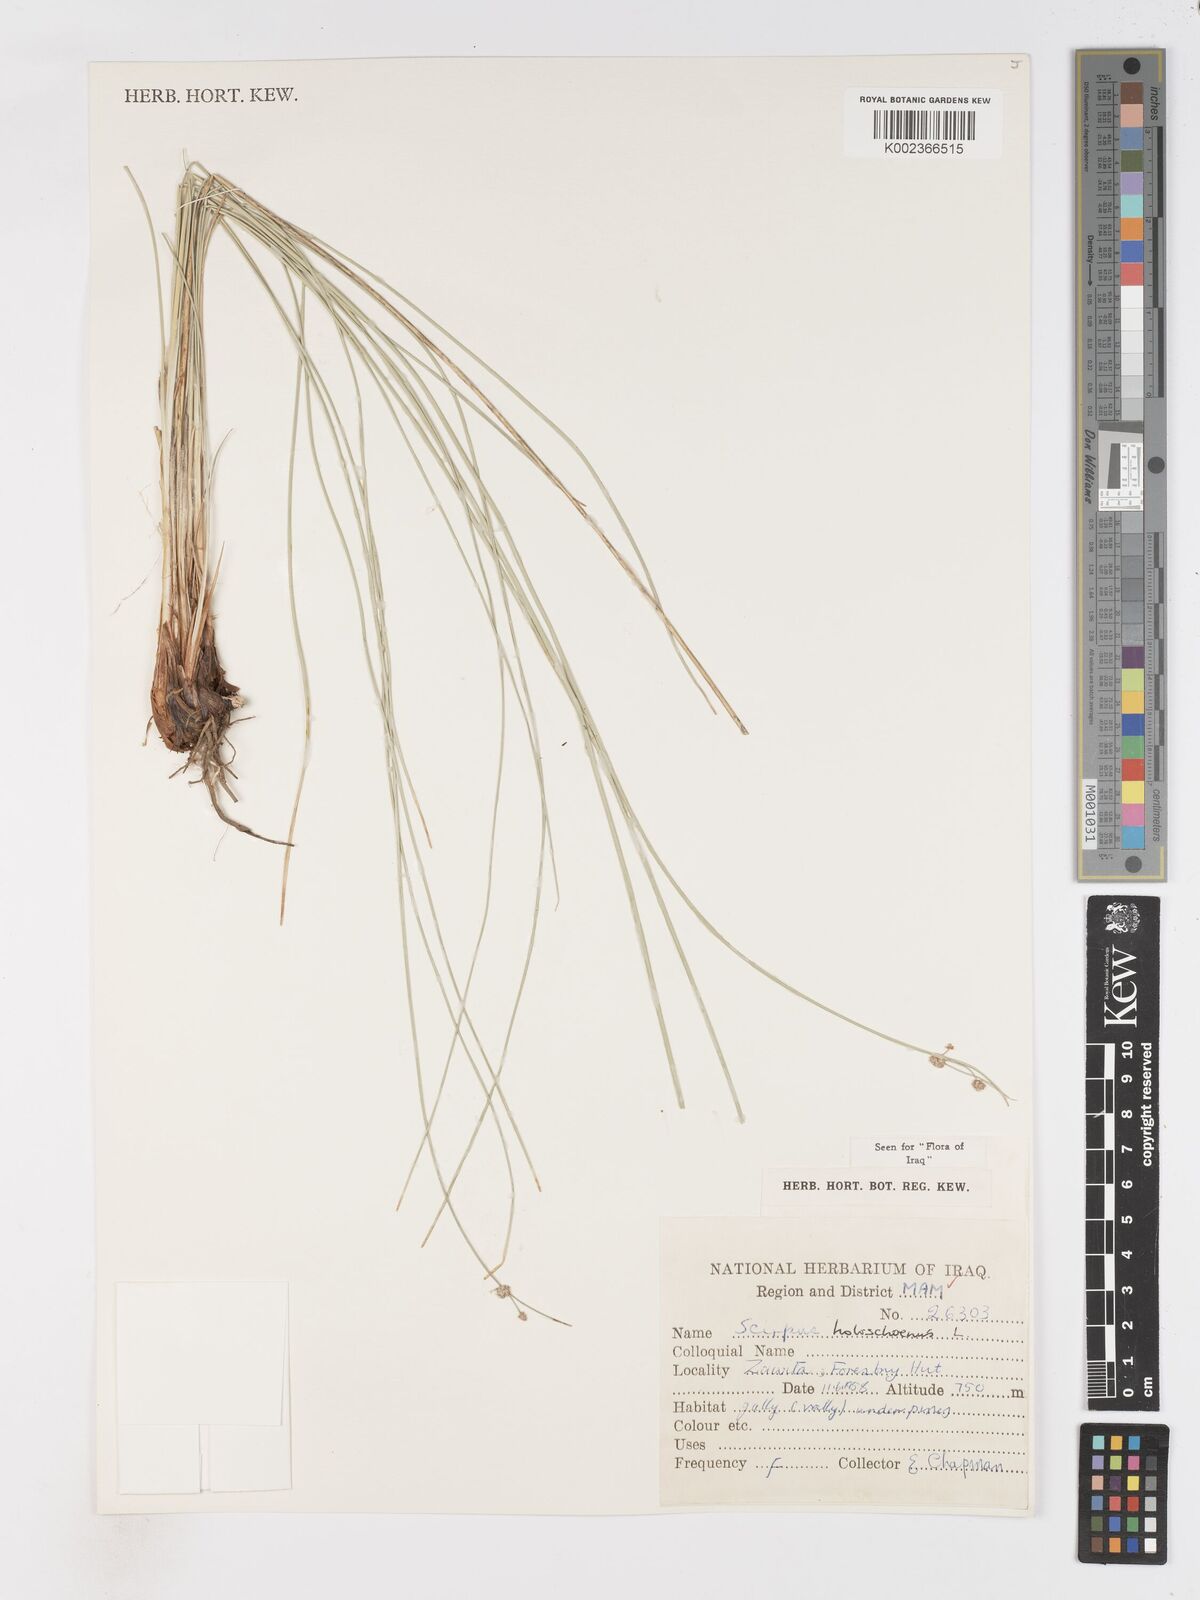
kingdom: Plantae
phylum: Tracheophyta
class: Liliopsida
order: Poales
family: Cyperaceae
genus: Scirpoides
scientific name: Scirpoides holoschoenus
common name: Round-headed club-rush
